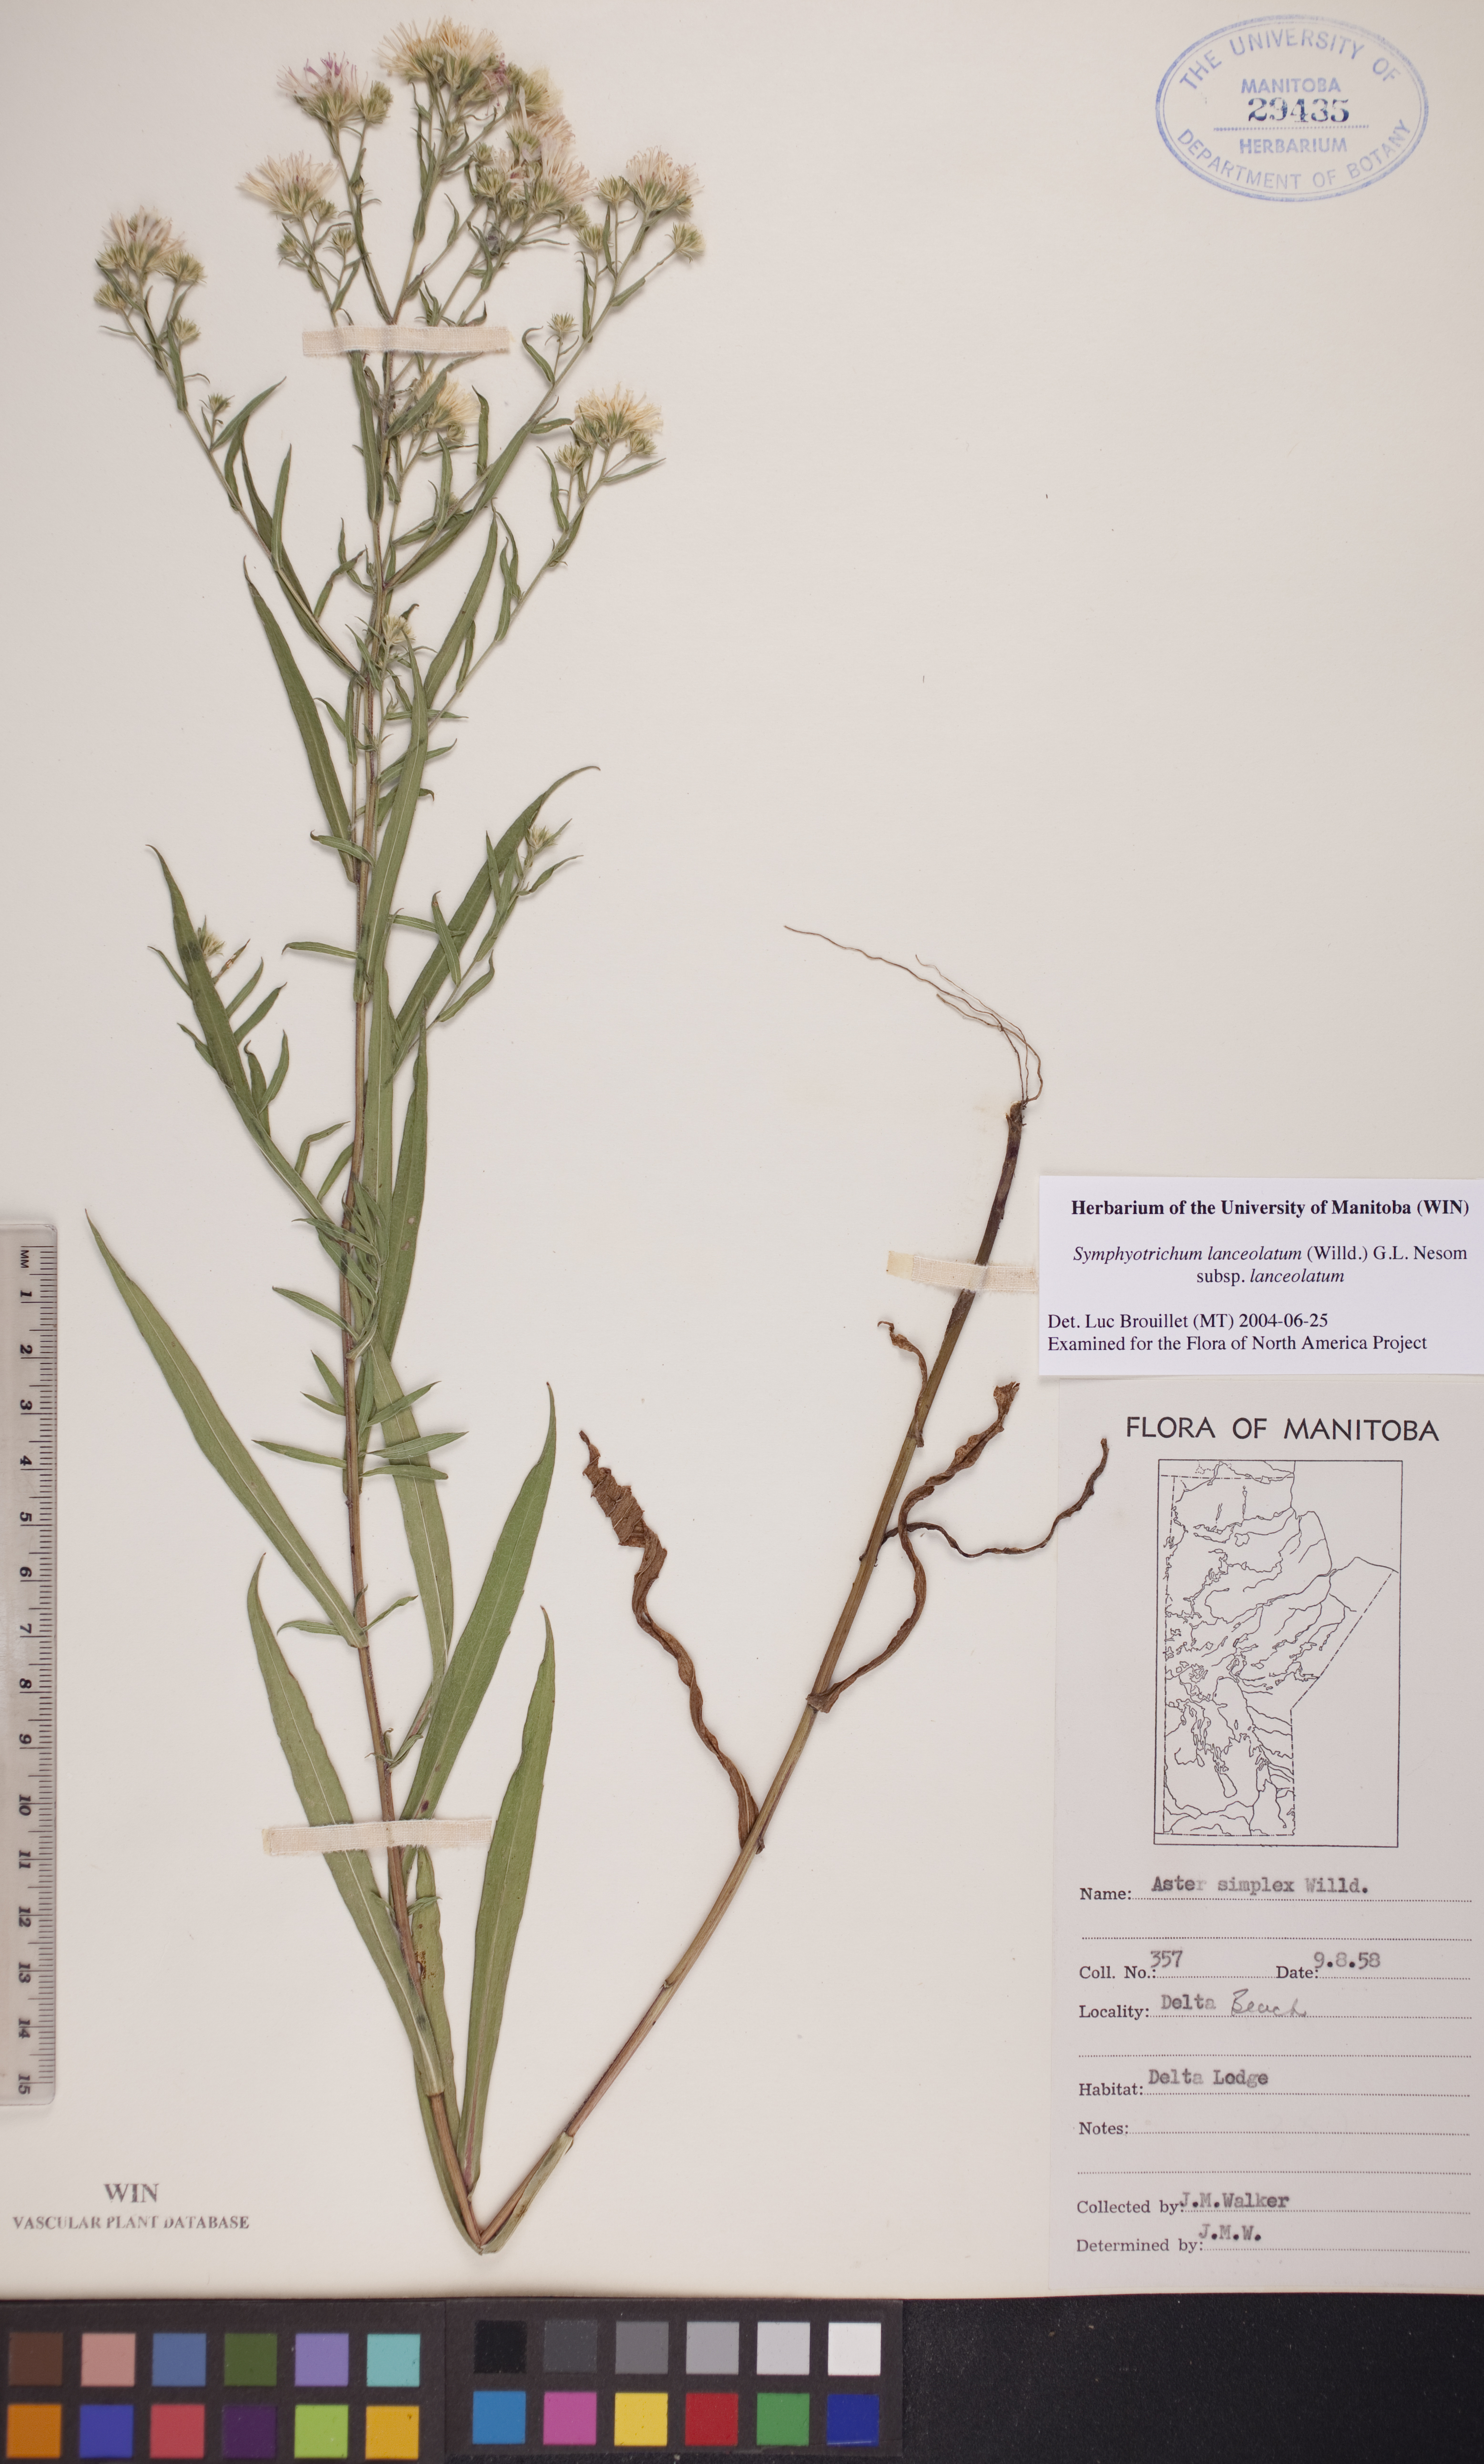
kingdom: Plantae
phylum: Tracheophyta
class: Magnoliopsida
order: Asterales
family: Asteraceae
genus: Symphyotrichum
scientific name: Symphyotrichum lanceolatum
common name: Panicled aster
